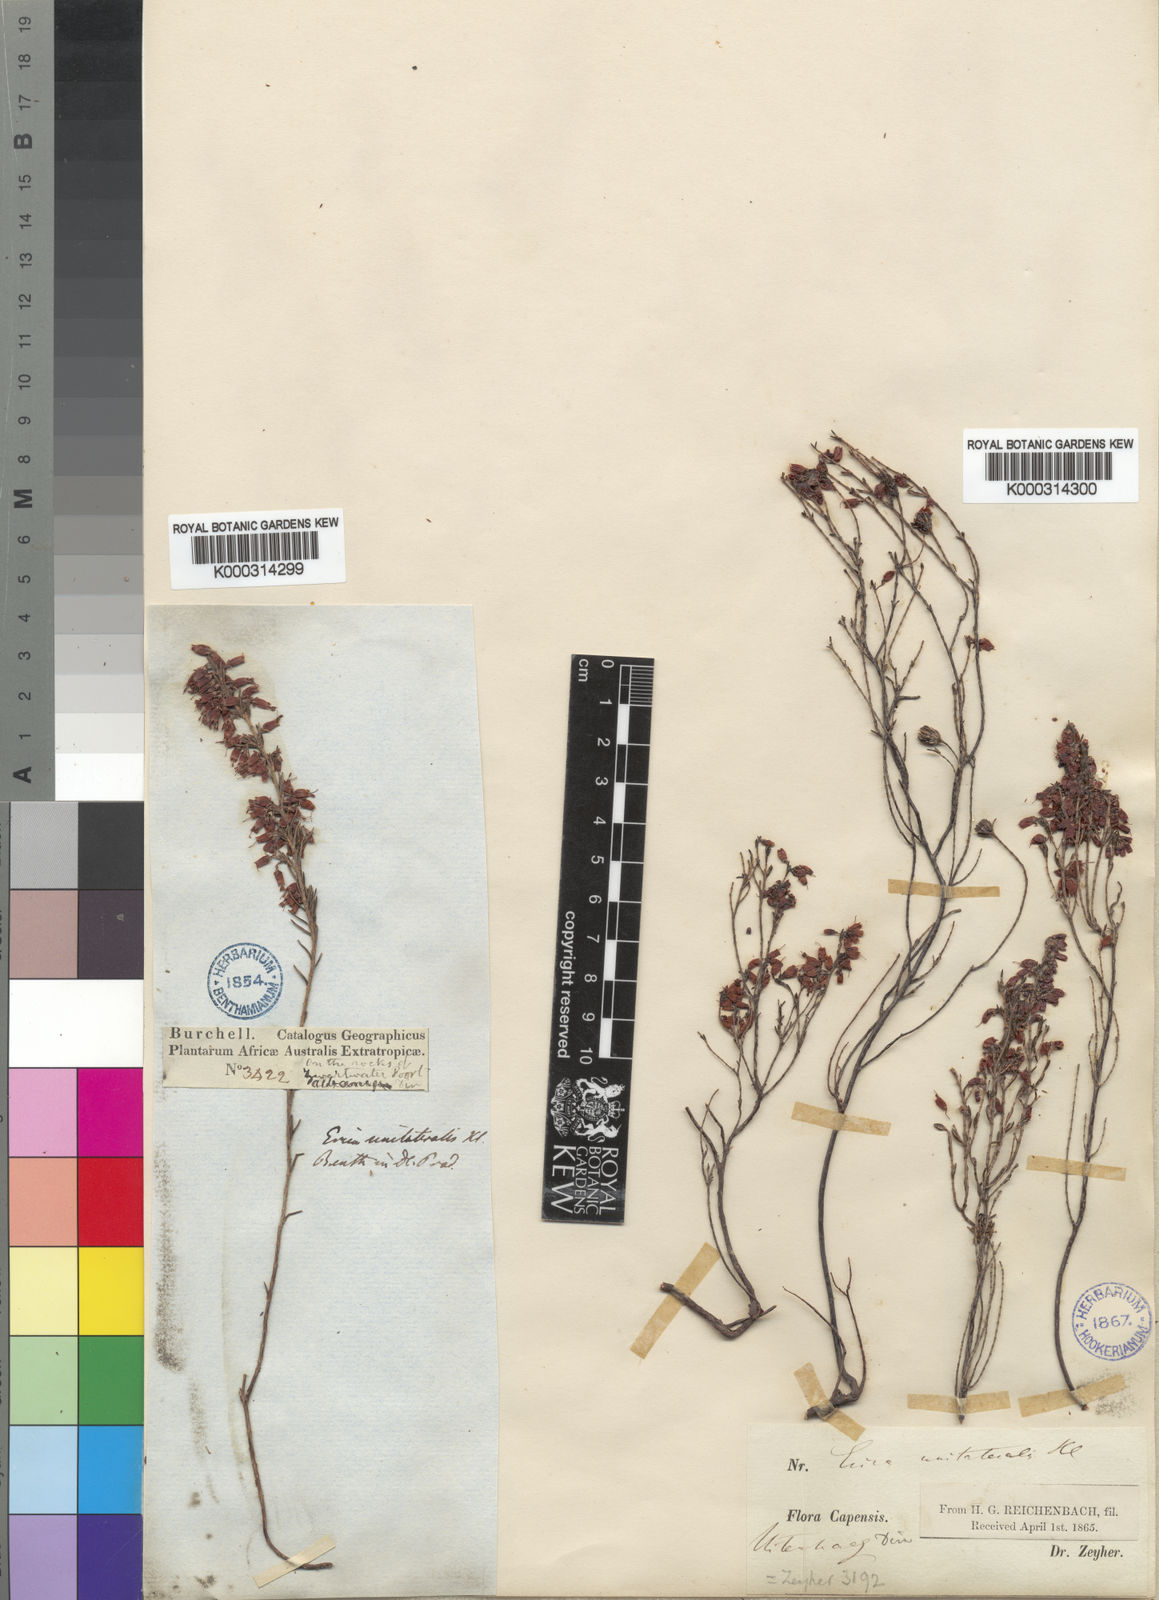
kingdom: Plantae
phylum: Tracheophyta
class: Magnoliopsida
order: Ericales
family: Ericaceae
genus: Erica
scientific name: Erica unilateralis
